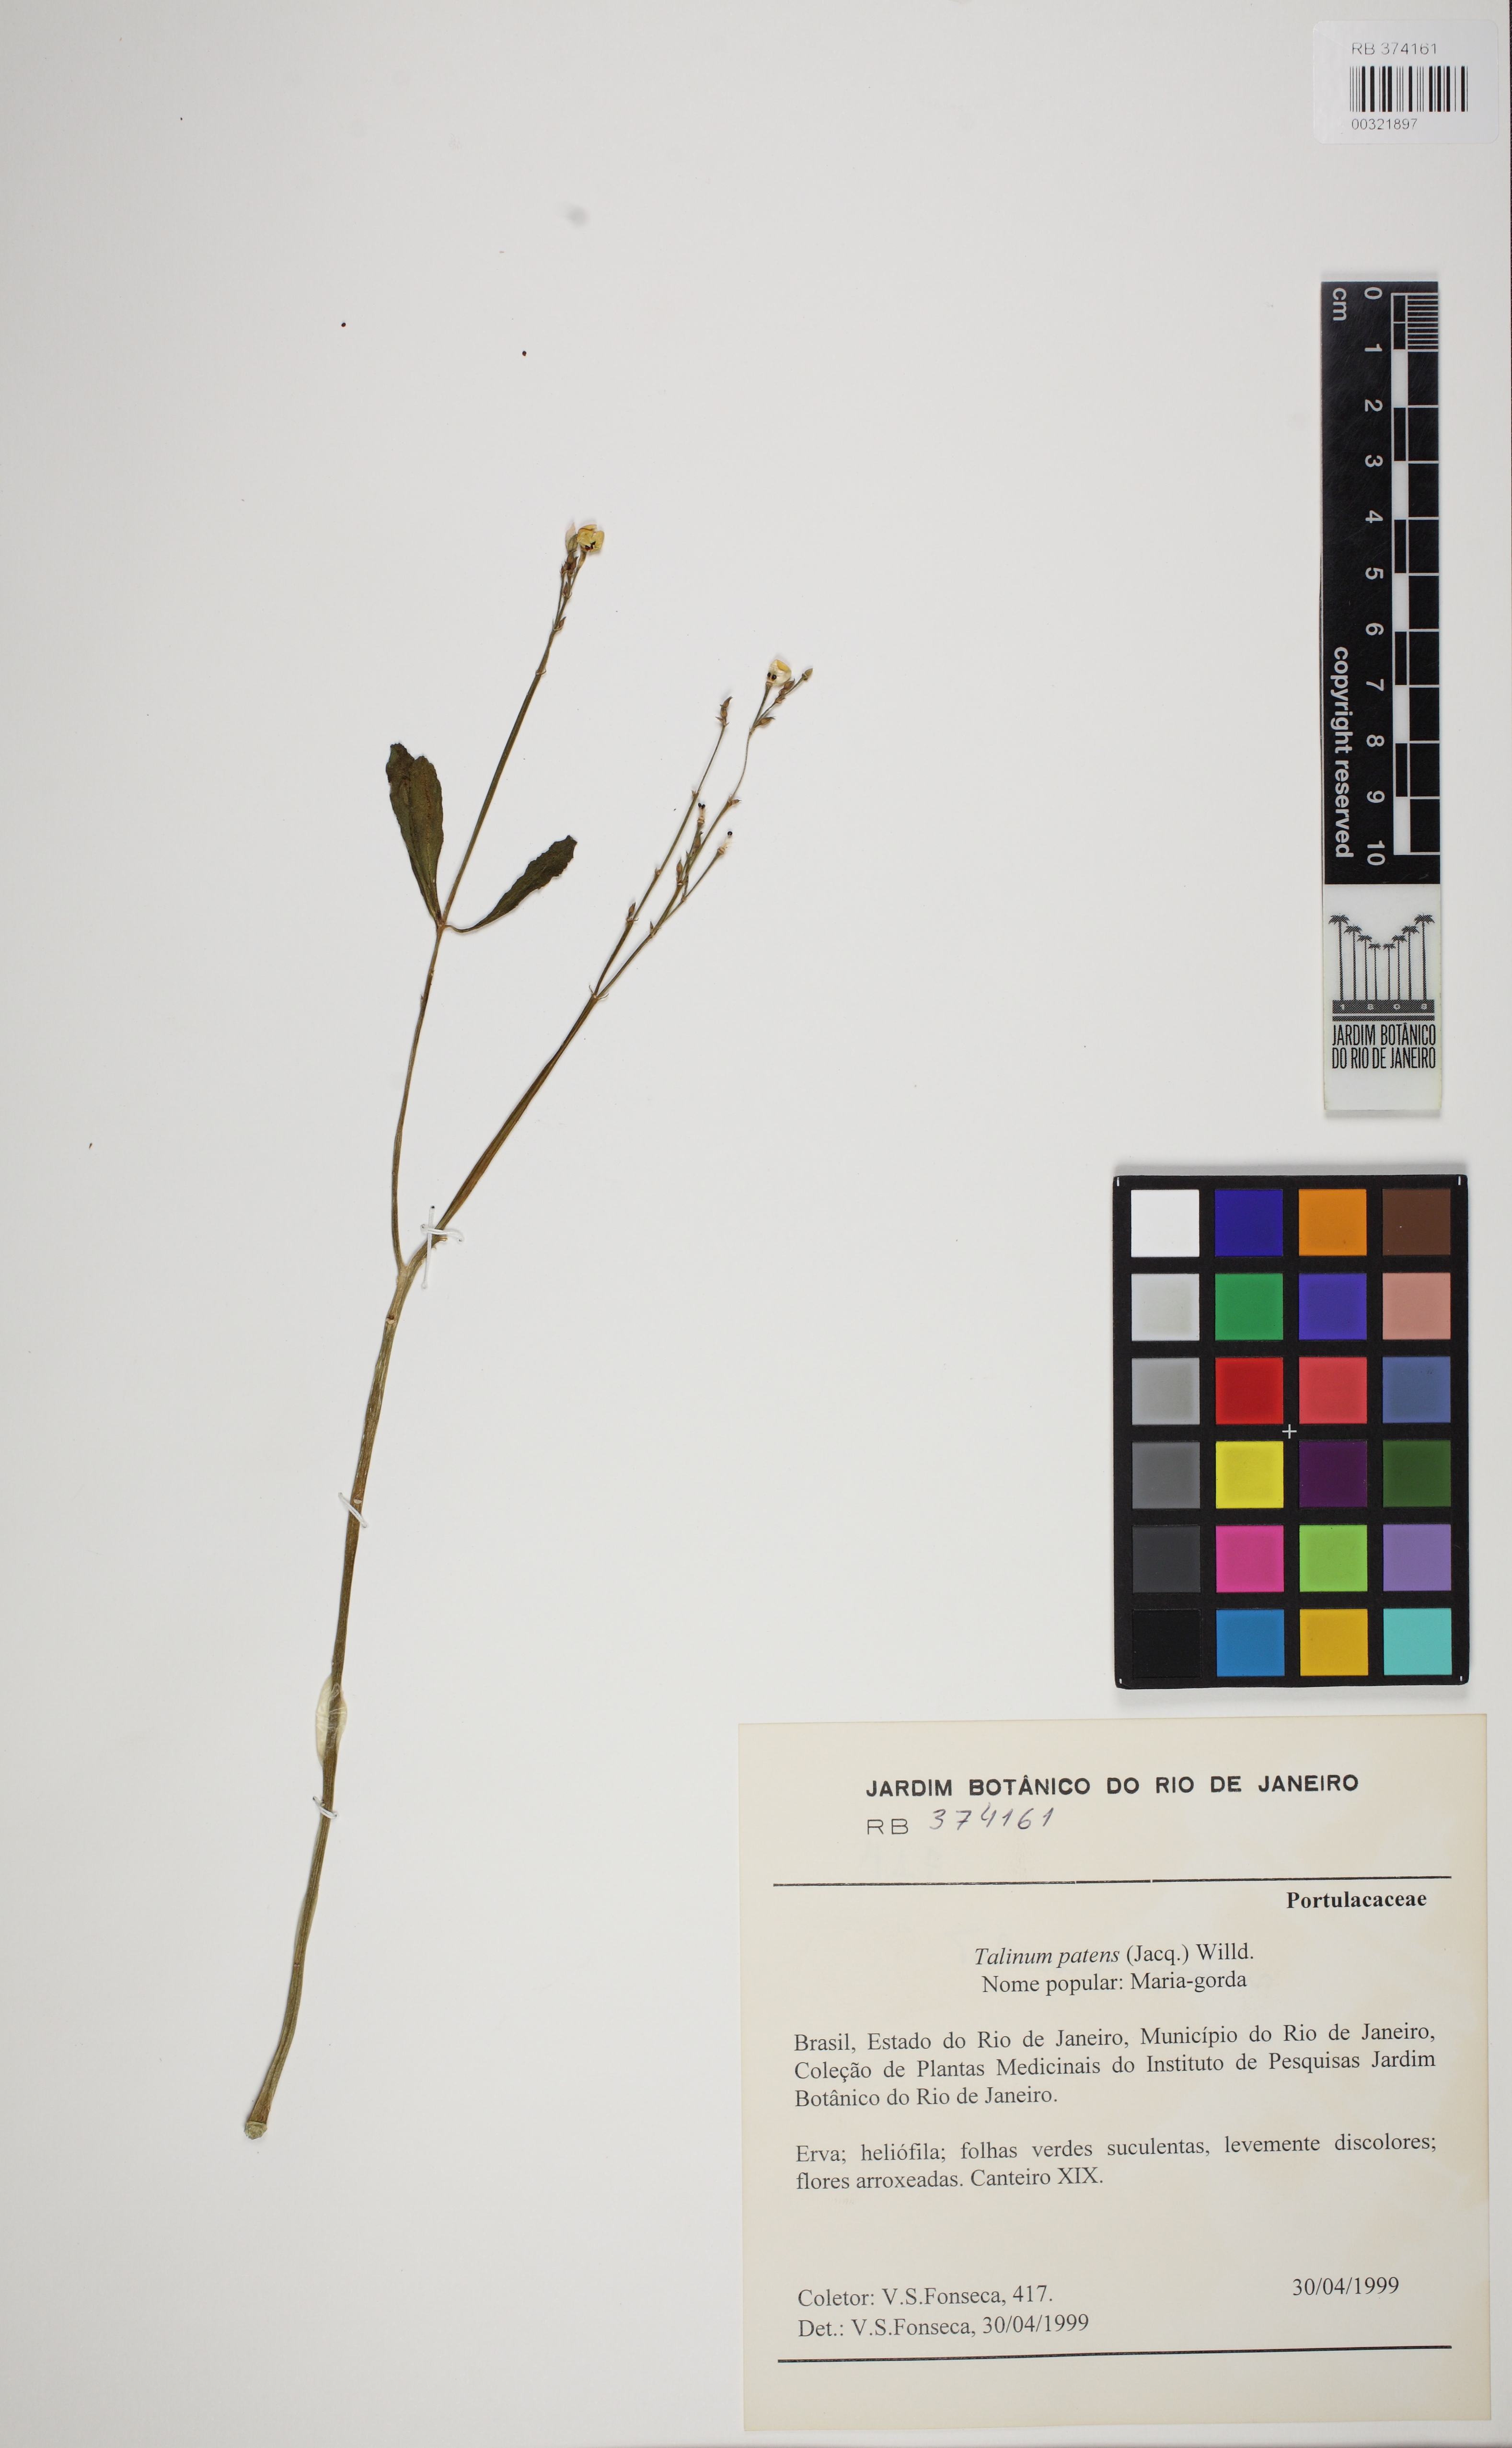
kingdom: Plantae
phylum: Tracheophyta
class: Magnoliopsida
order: Caryophyllales
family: Talinaceae
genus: Talinum
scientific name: Talinum paniculatum
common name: Jewels of opar
